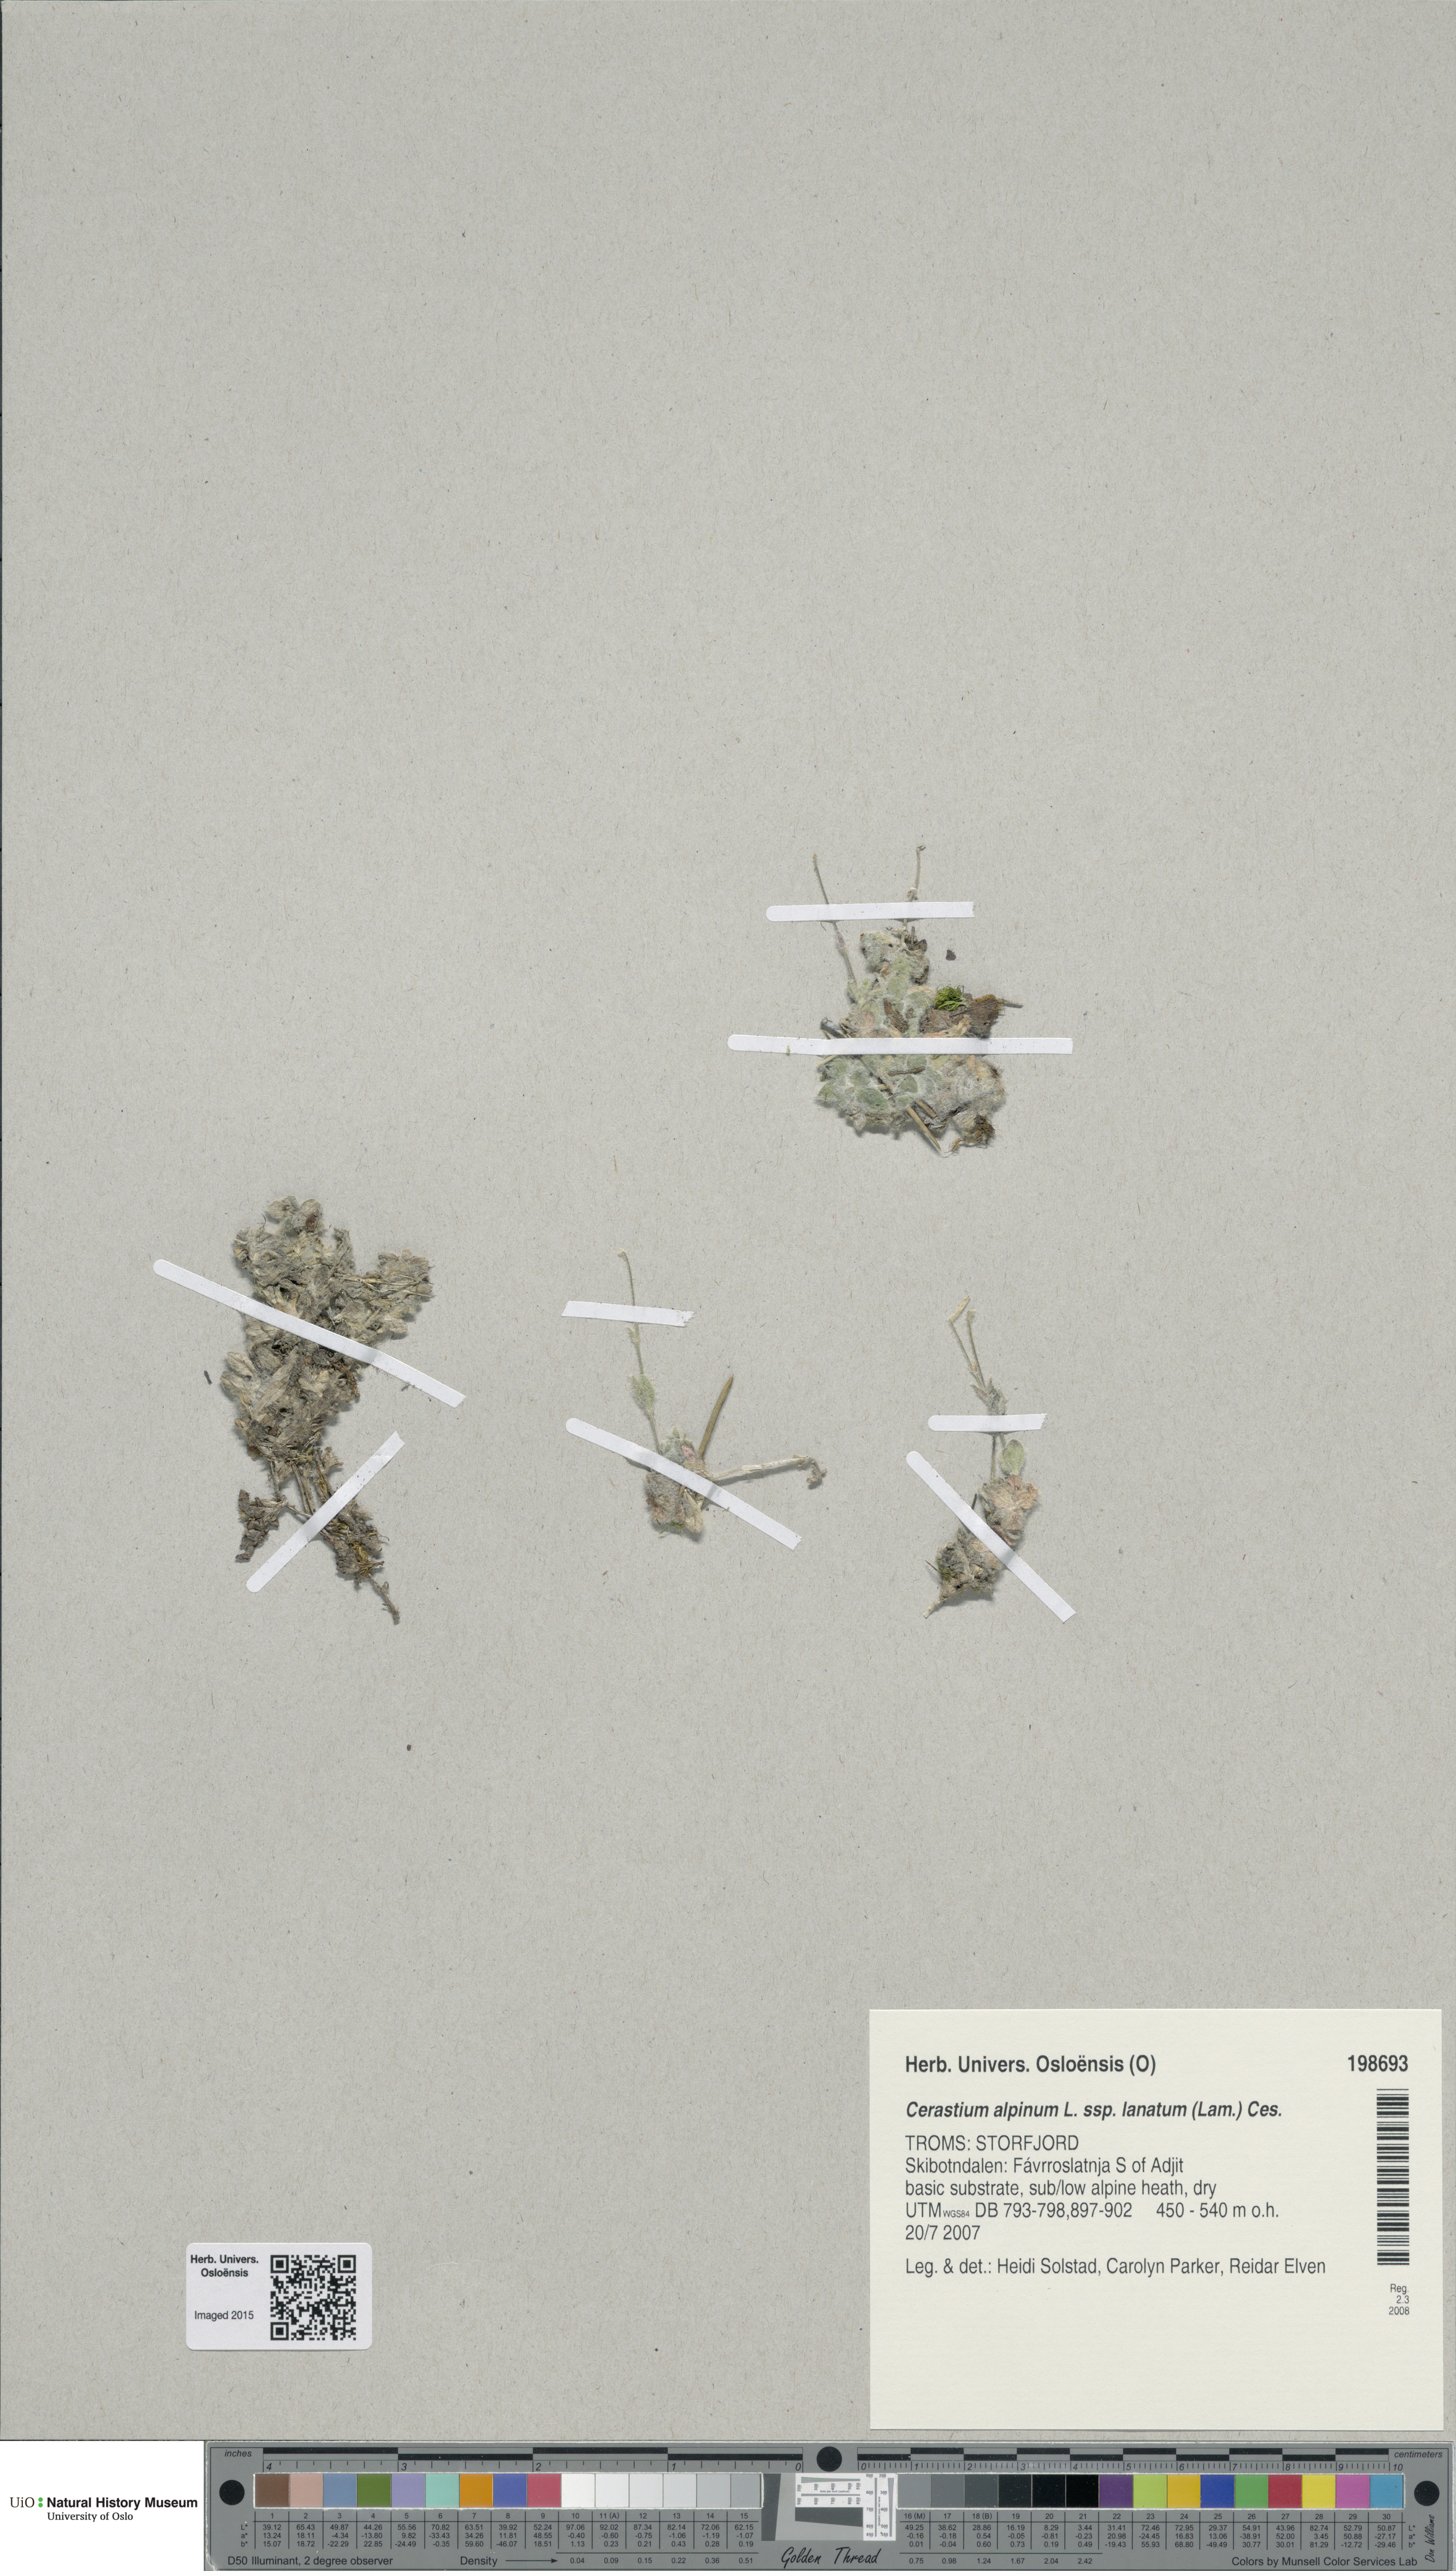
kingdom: Plantae
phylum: Tracheophyta
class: Magnoliopsida
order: Caryophyllales
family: Caryophyllaceae
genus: Cerastium
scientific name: Cerastium alpinum
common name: Alpine mouse-ear
